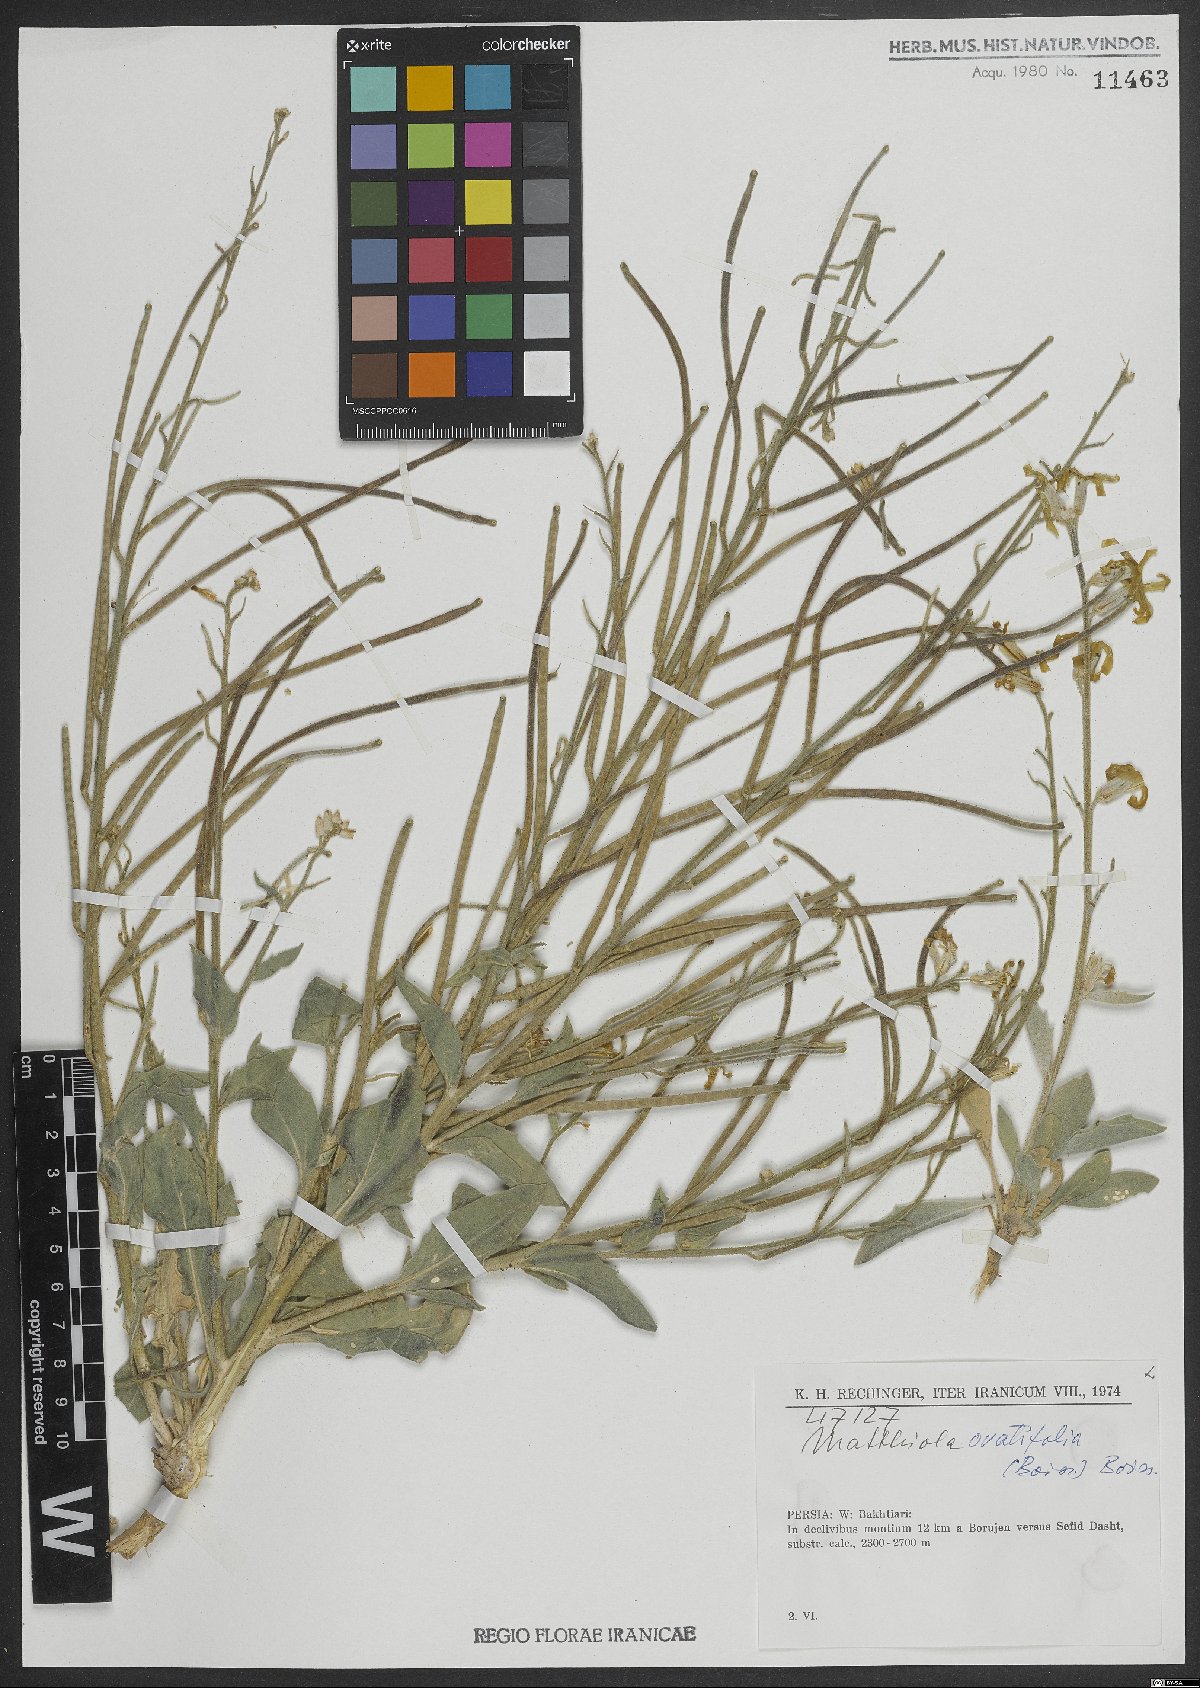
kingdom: Plantae
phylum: Tracheophyta
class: Magnoliopsida
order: Brassicales
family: Brassicaceae
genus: Matthiola
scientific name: Matthiola ovatifolia
